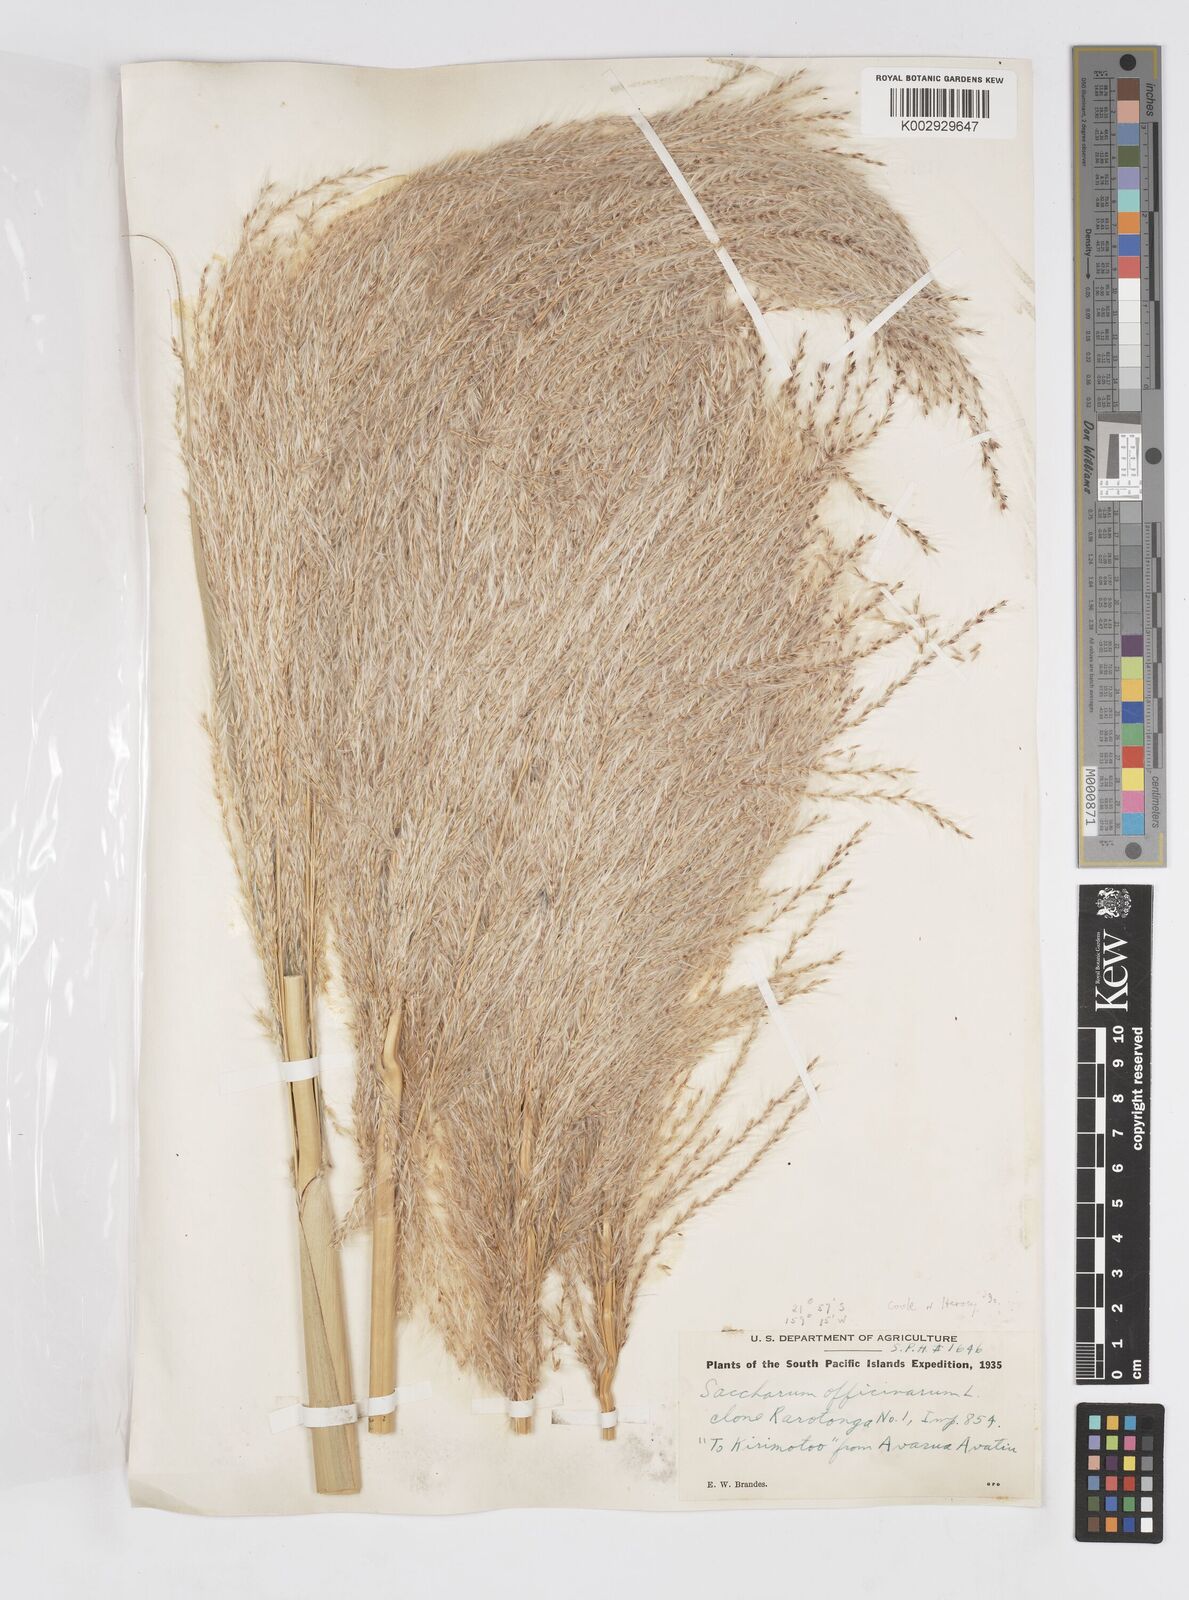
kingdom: Plantae
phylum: Tracheophyta
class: Liliopsida
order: Poales
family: Poaceae
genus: Saccharum
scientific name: Saccharum officinarum
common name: Sugarcane
